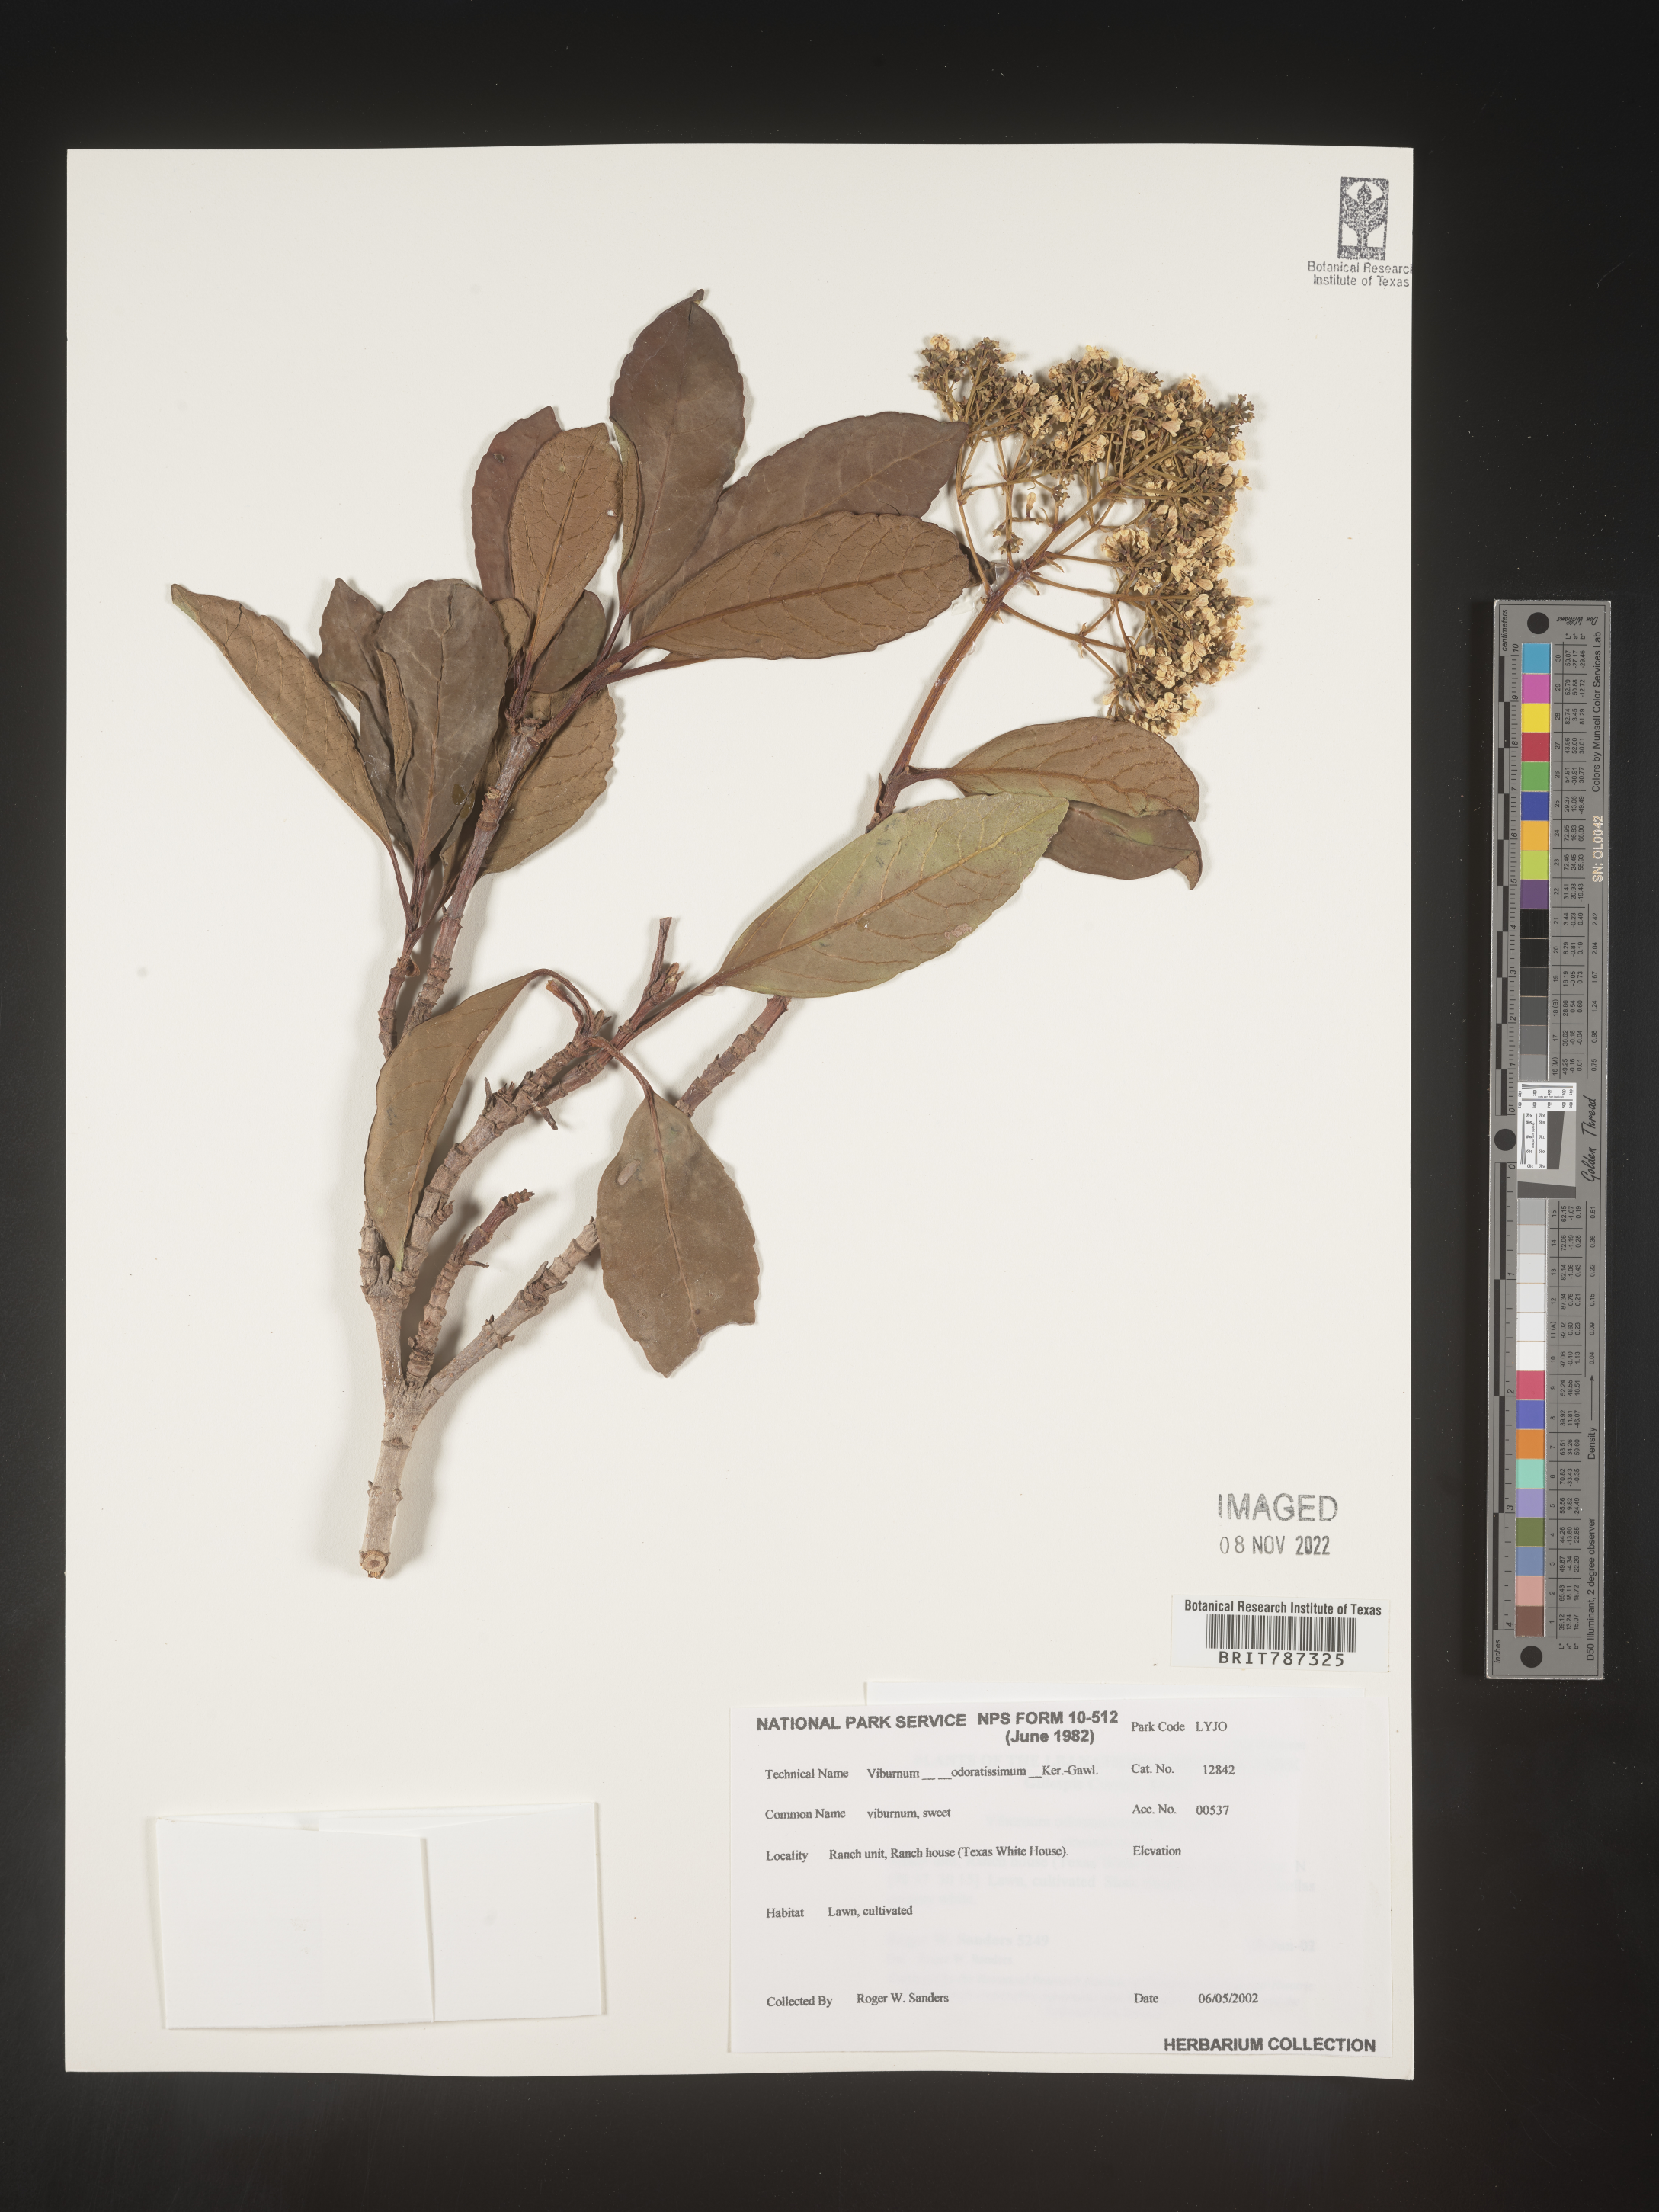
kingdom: Plantae
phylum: Tracheophyta
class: Magnoliopsida
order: Dipsacales
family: Viburnaceae
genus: Viburnum
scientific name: Viburnum
